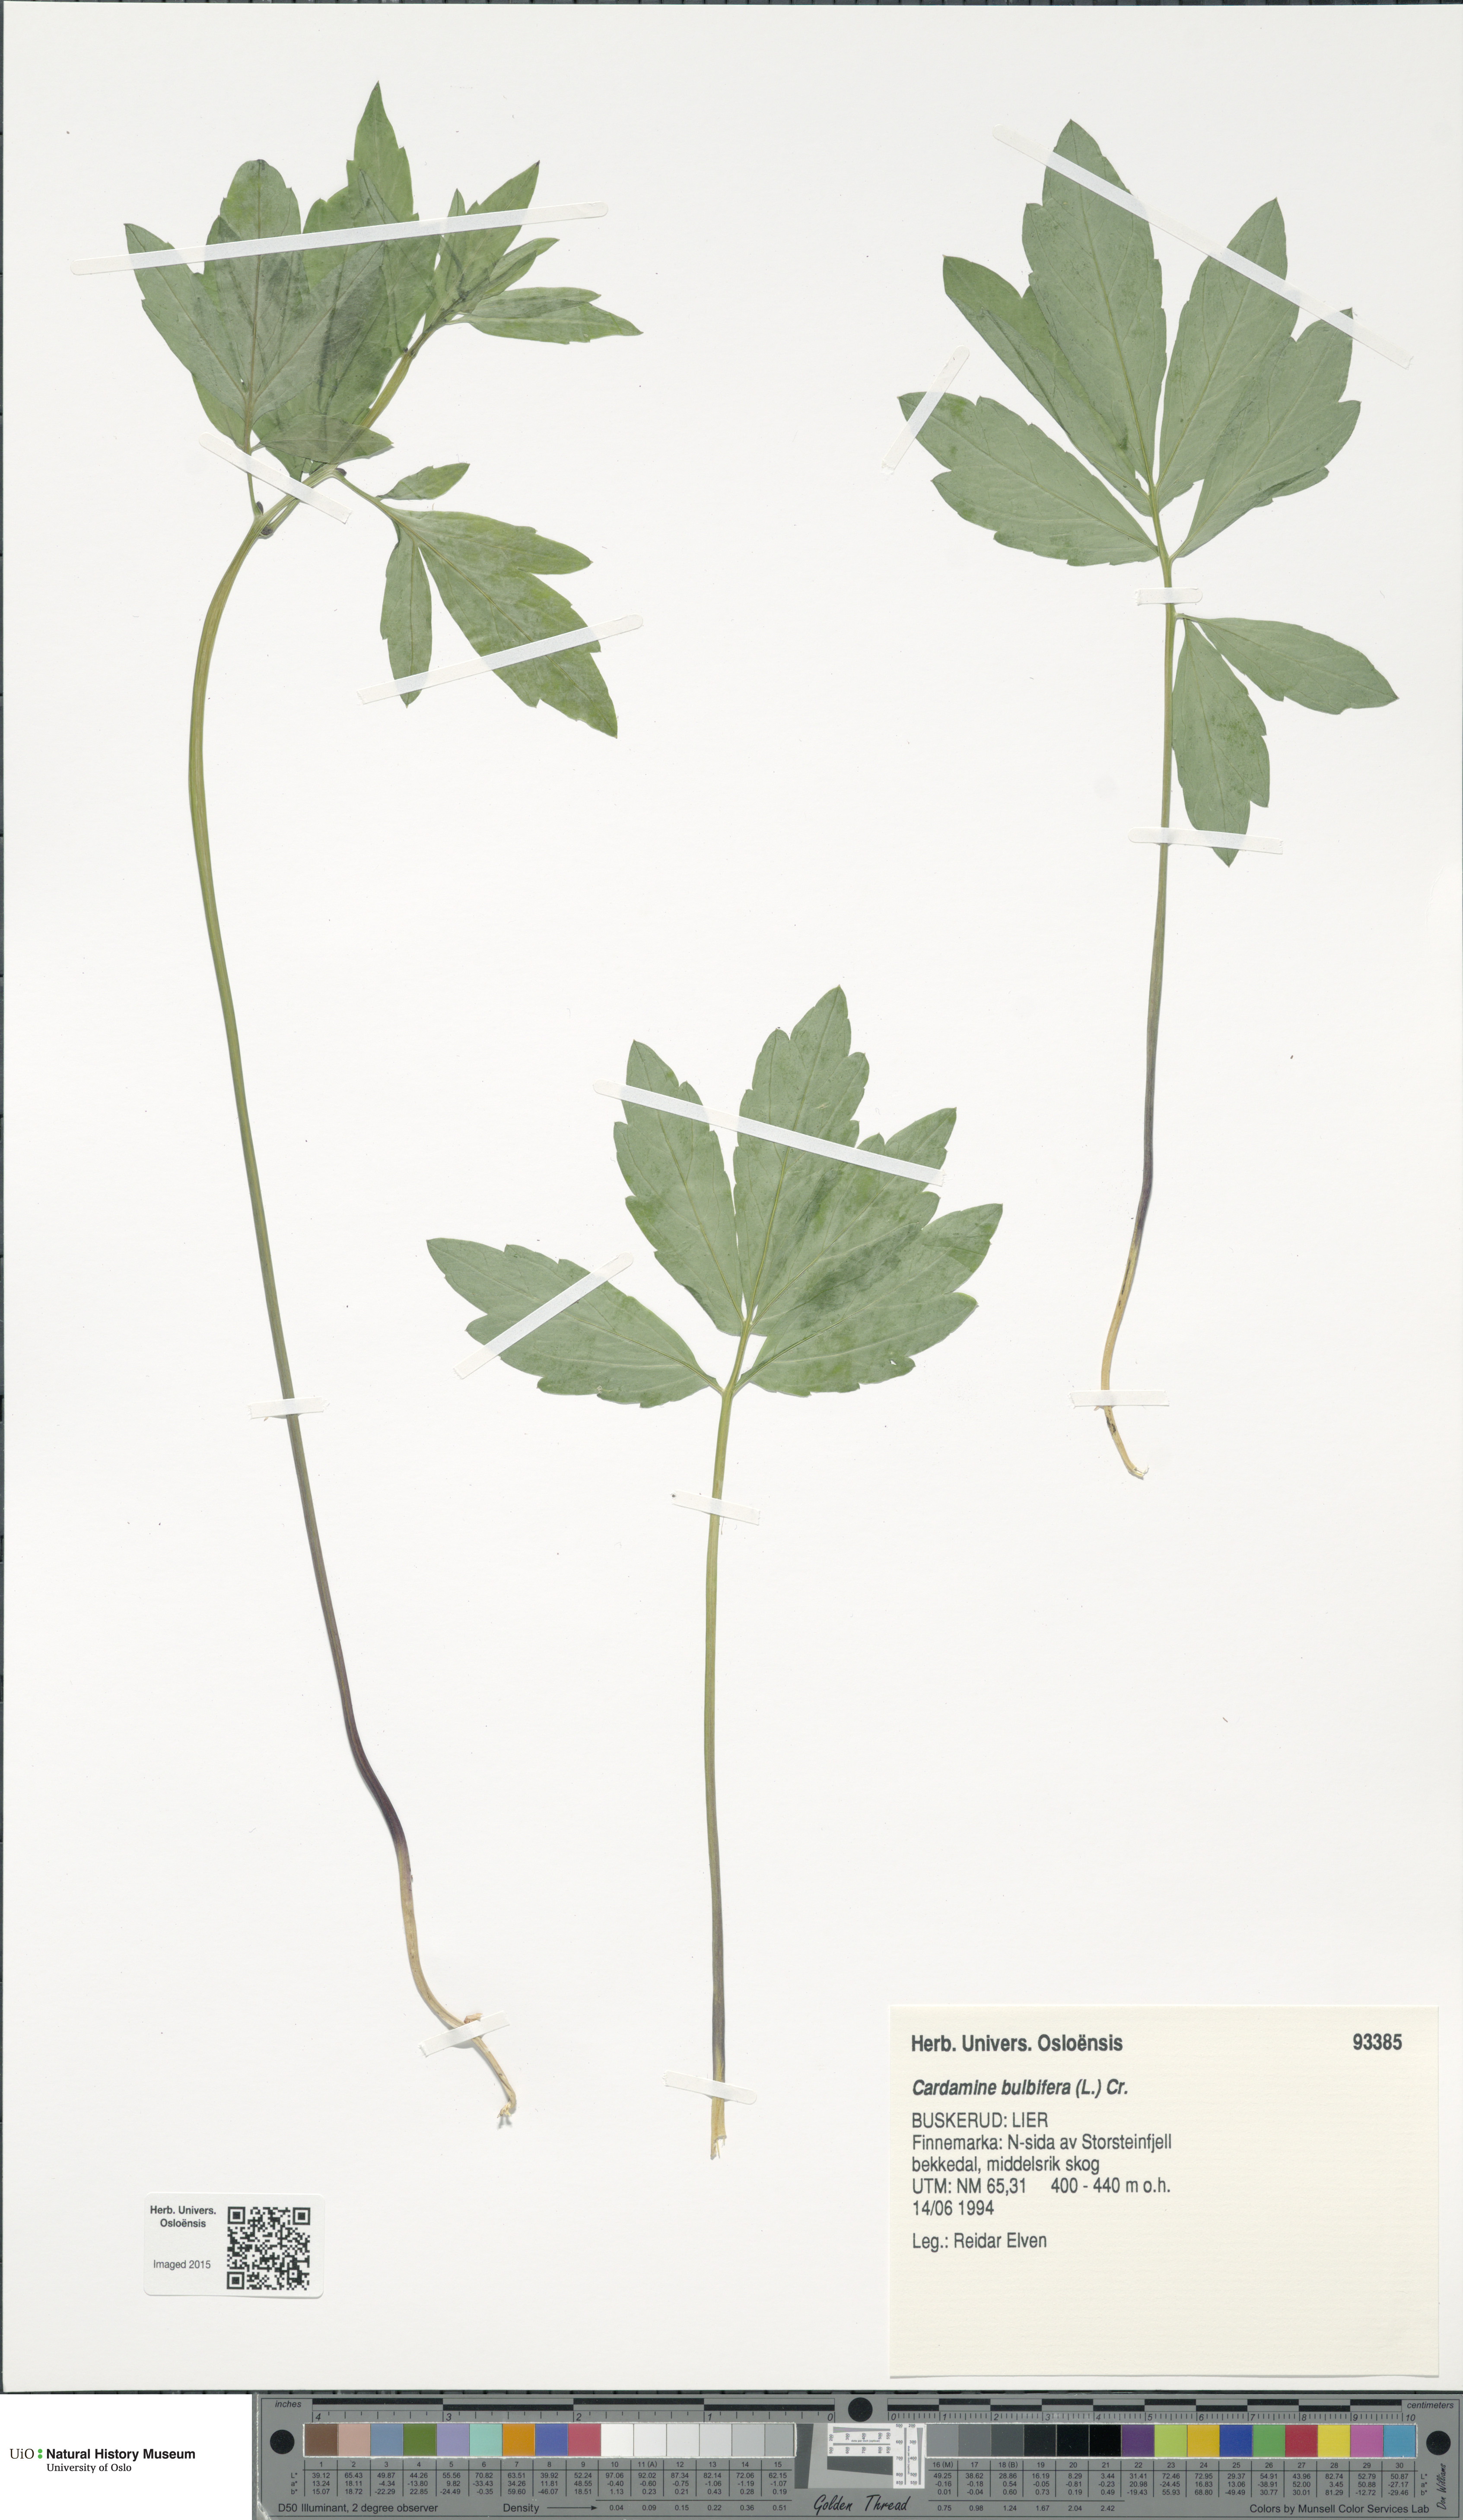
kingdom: Plantae
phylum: Tracheophyta
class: Magnoliopsida
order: Brassicales
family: Brassicaceae
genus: Cardamine
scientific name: Cardamine bulbifera
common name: Coralroot bittercress
